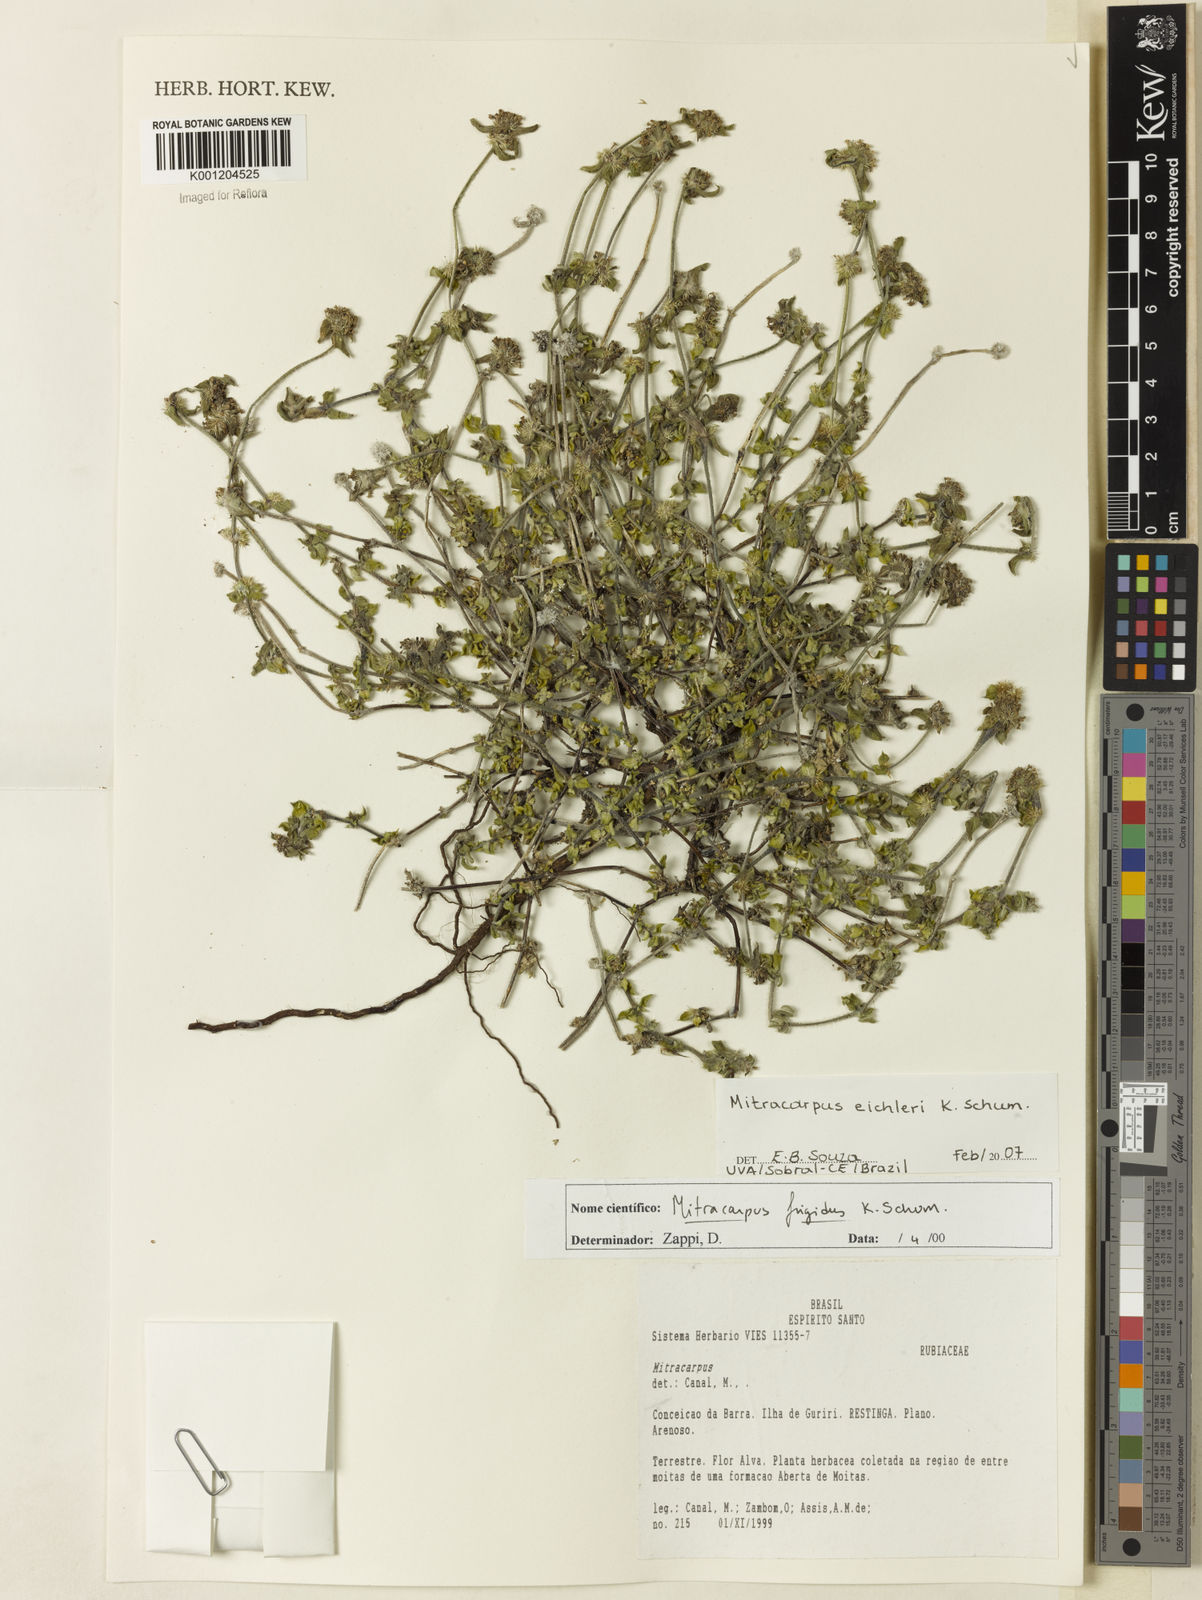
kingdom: Plantae
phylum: Tracheophyta
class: Magnoliopsida
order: Gentianales
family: Rubiaceae
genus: Mitracarpus
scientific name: Mitracarpus eichleri
